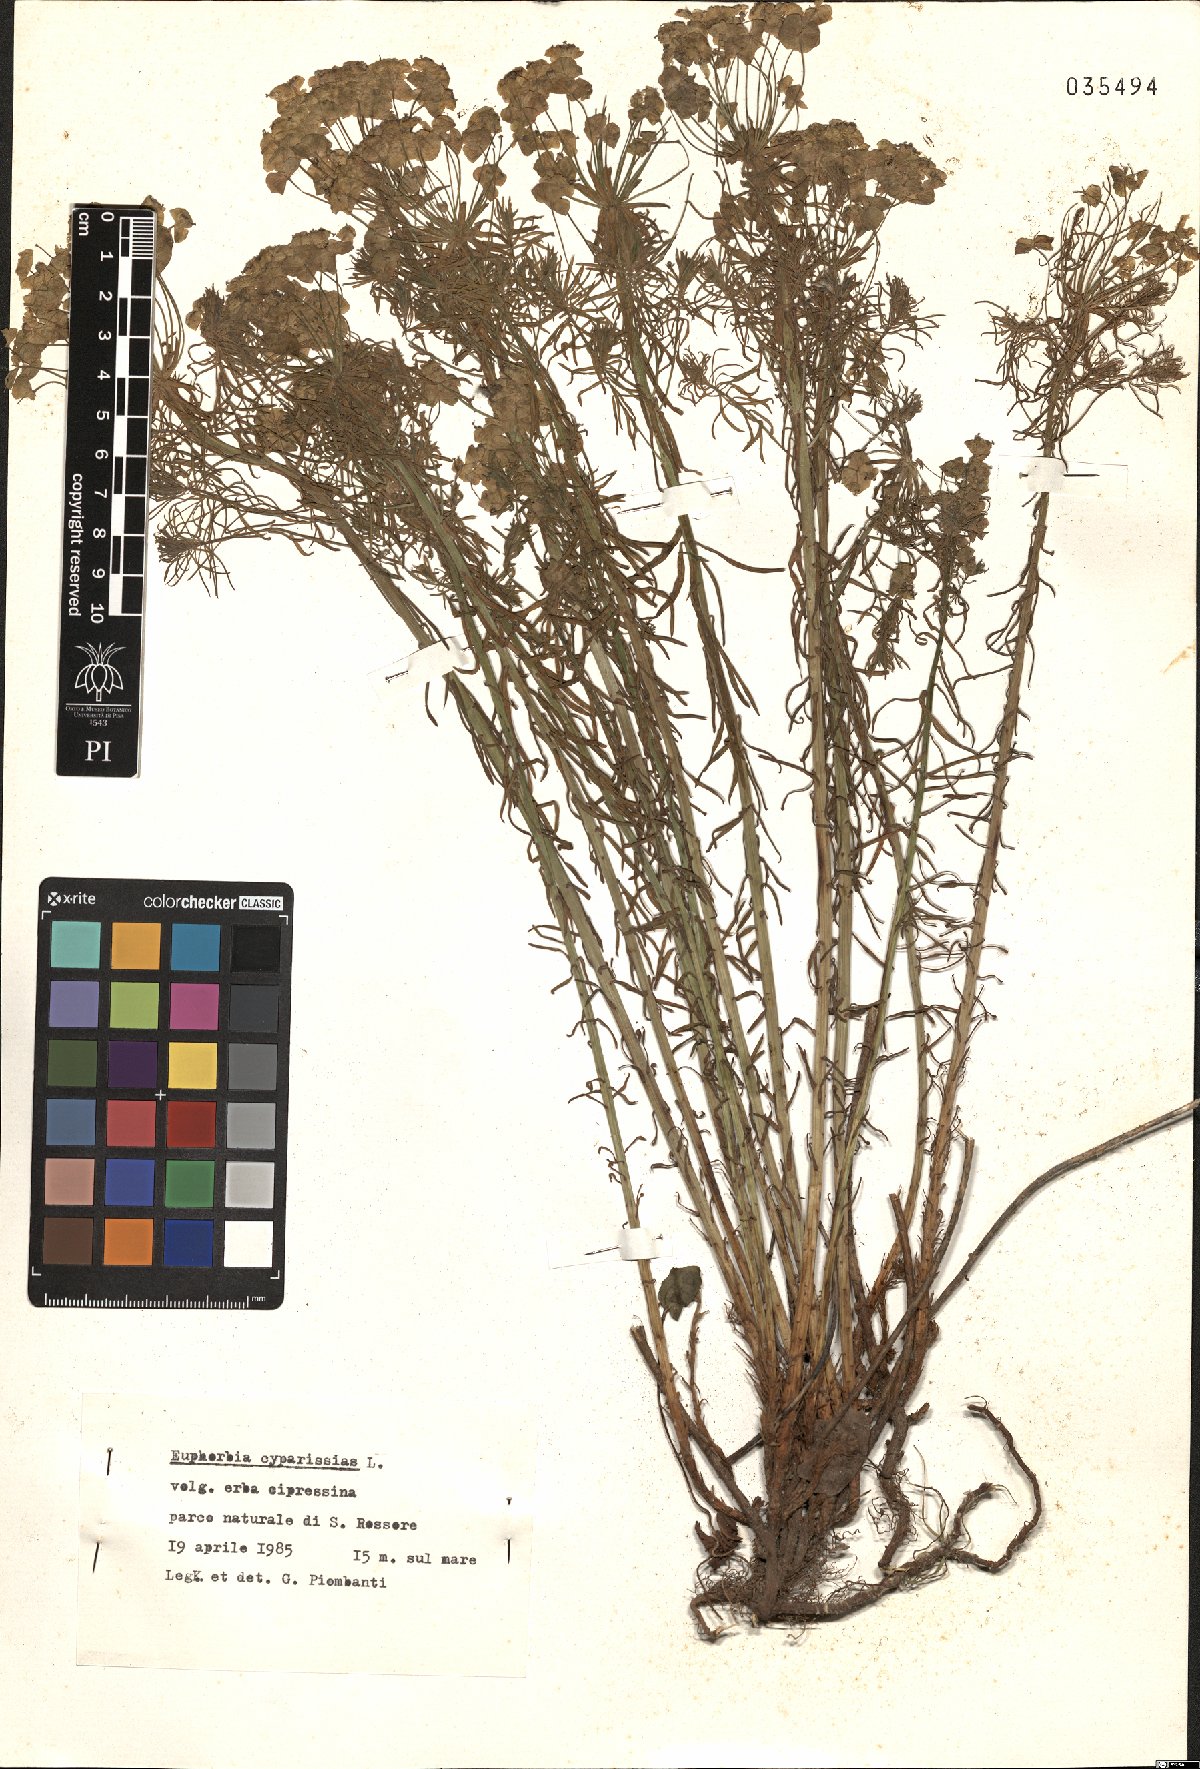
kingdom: Plantae
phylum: Tracheophyta
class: Magnoliopsida
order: Malpighiales
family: Euphorbiaceae
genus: Euphorbia
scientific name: Euphorbia cyparissias
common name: Cypress spurge
